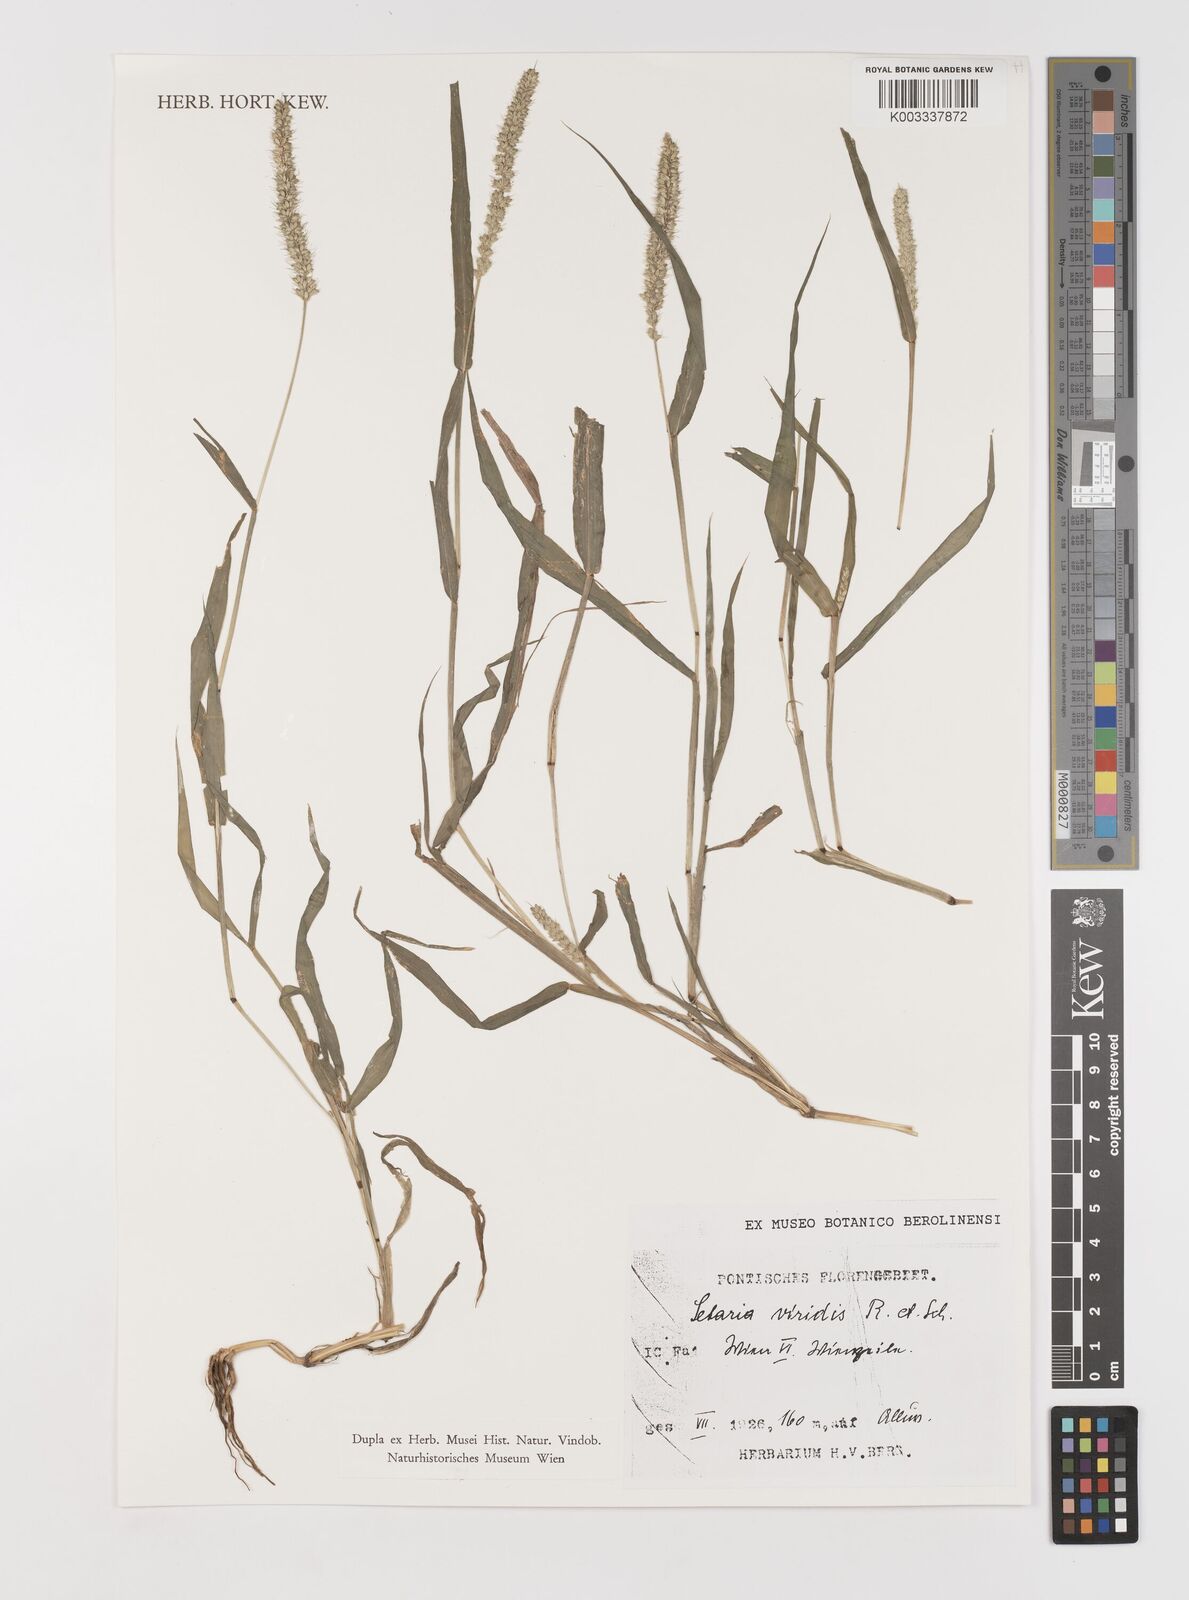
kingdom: Plantae
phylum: Tracheophyta
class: Liliopsida
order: Poales
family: Poaceae
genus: Setaria
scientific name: Setaria viridis
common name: Green bristlegrass
